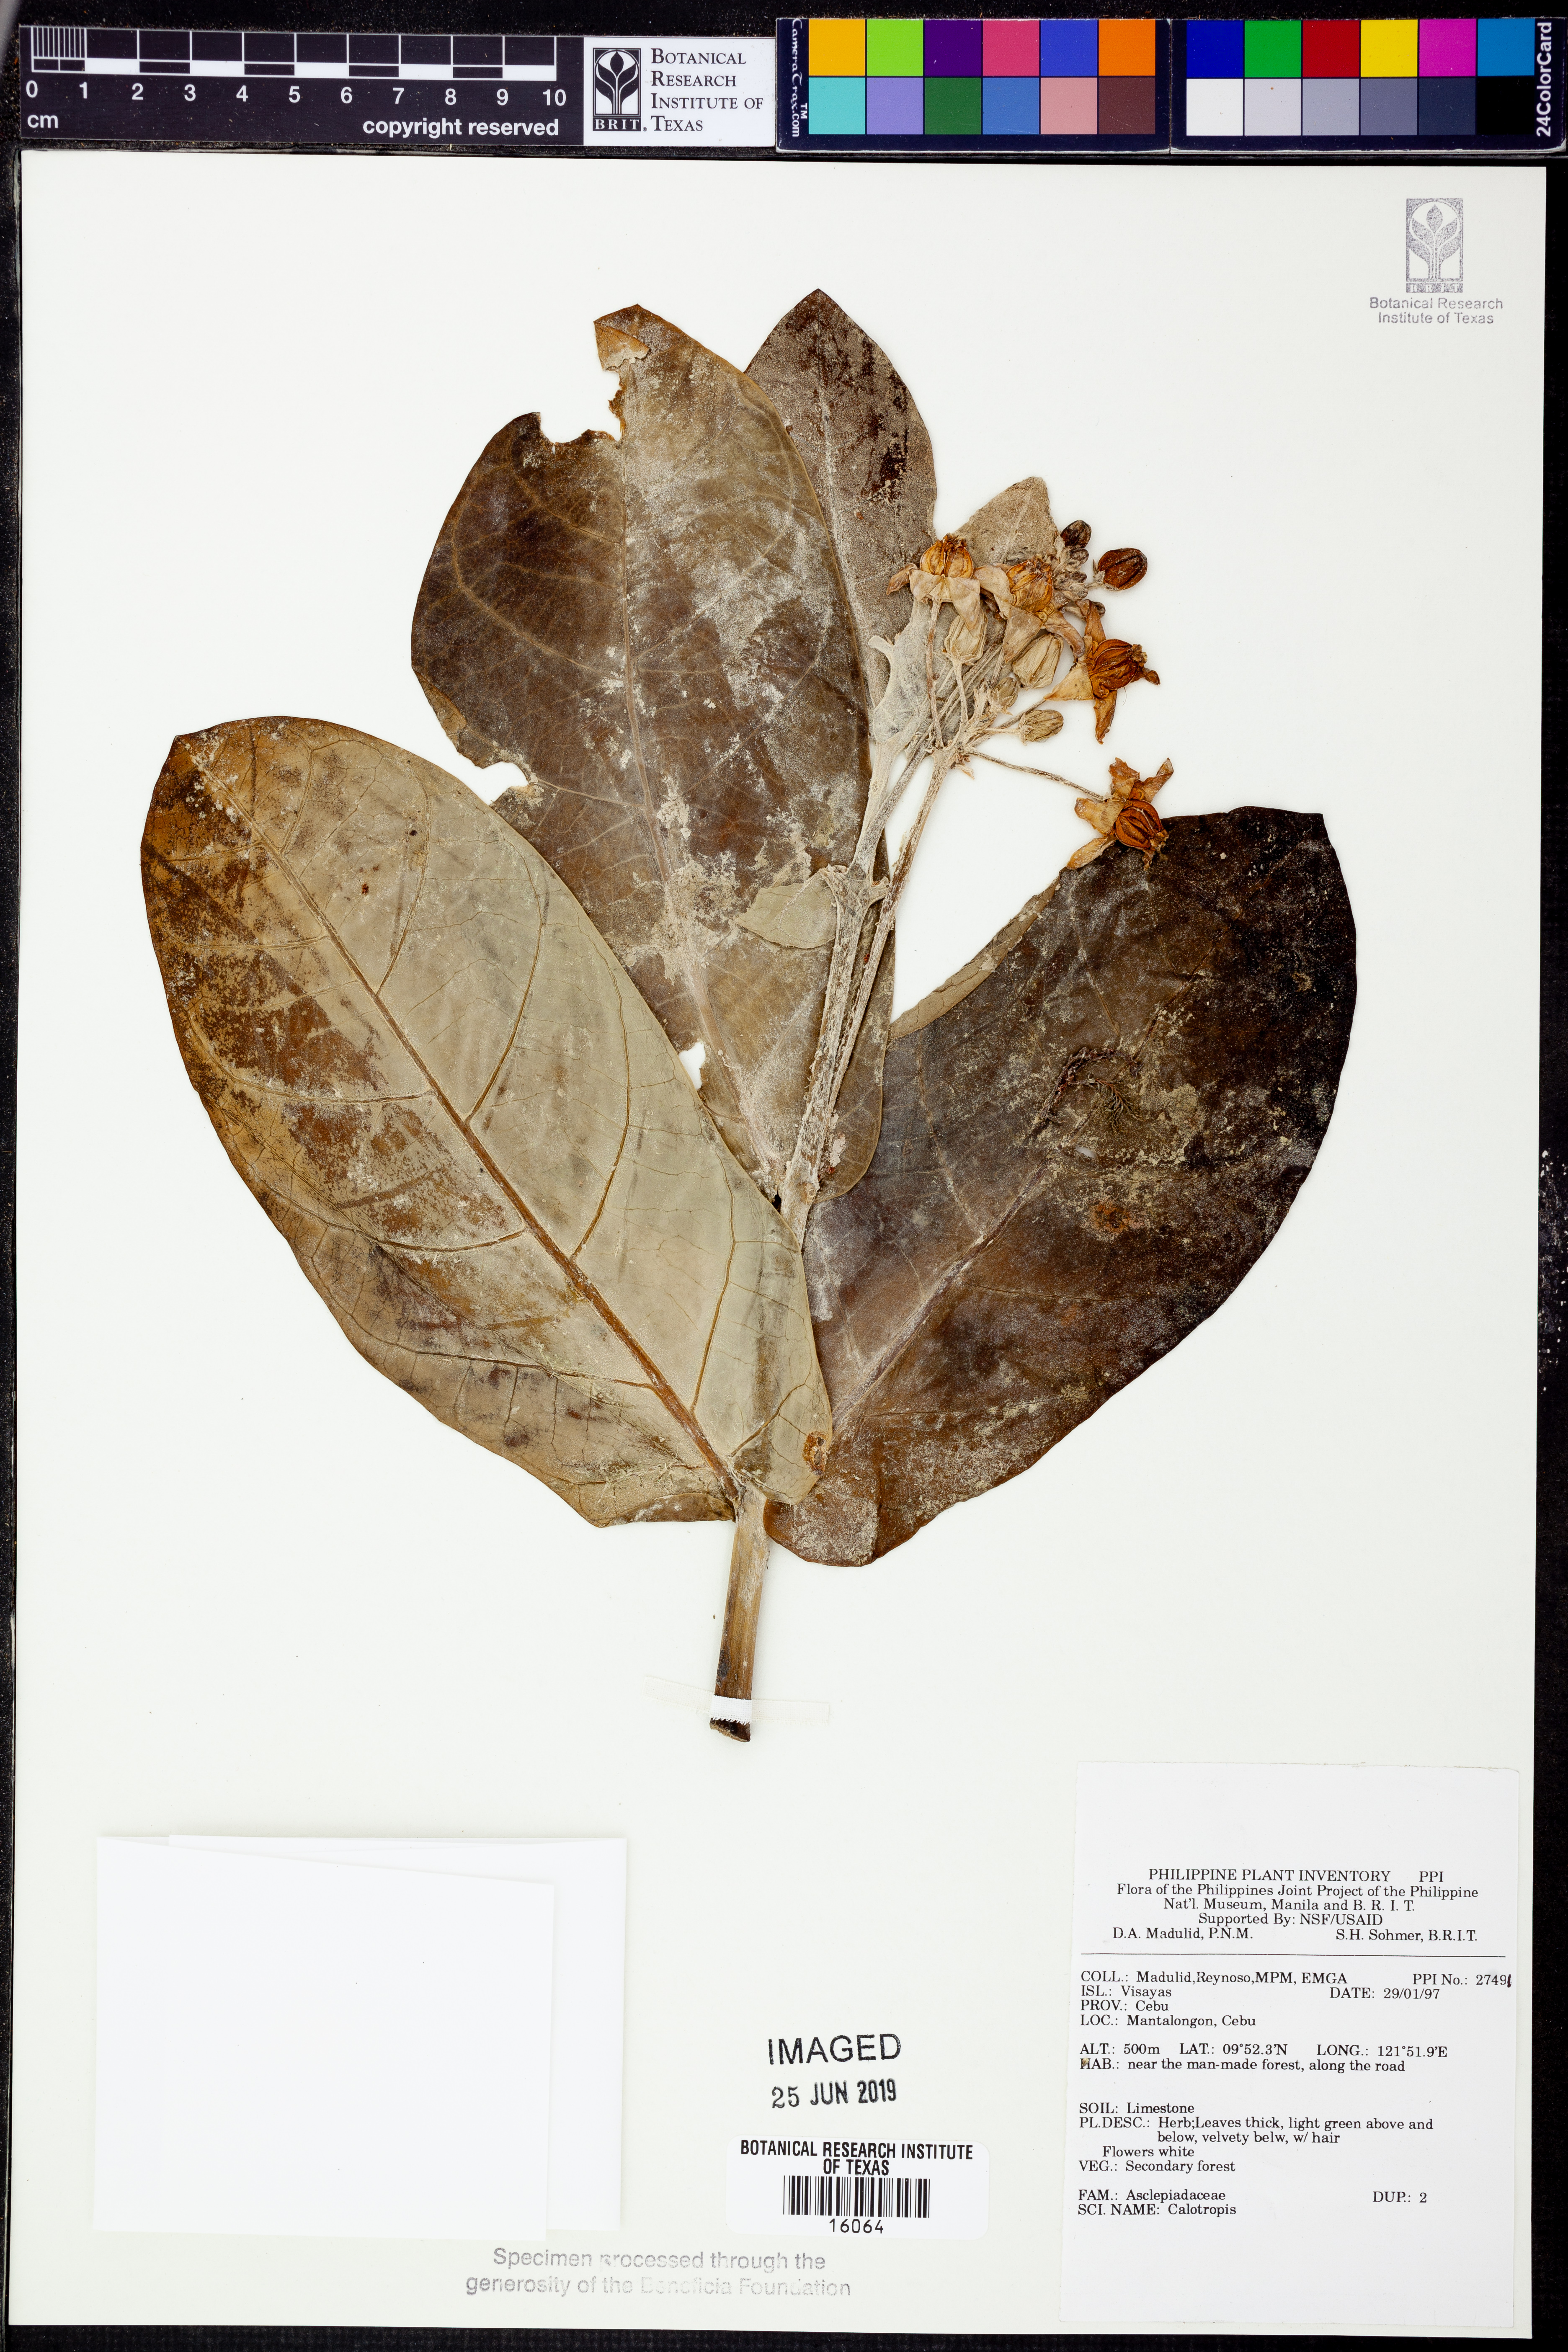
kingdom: Plantae
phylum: Tracheophyta
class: Magnoliopsida
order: Gentianales
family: Apocynaceae
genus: Calotropis
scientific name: Calotropis
